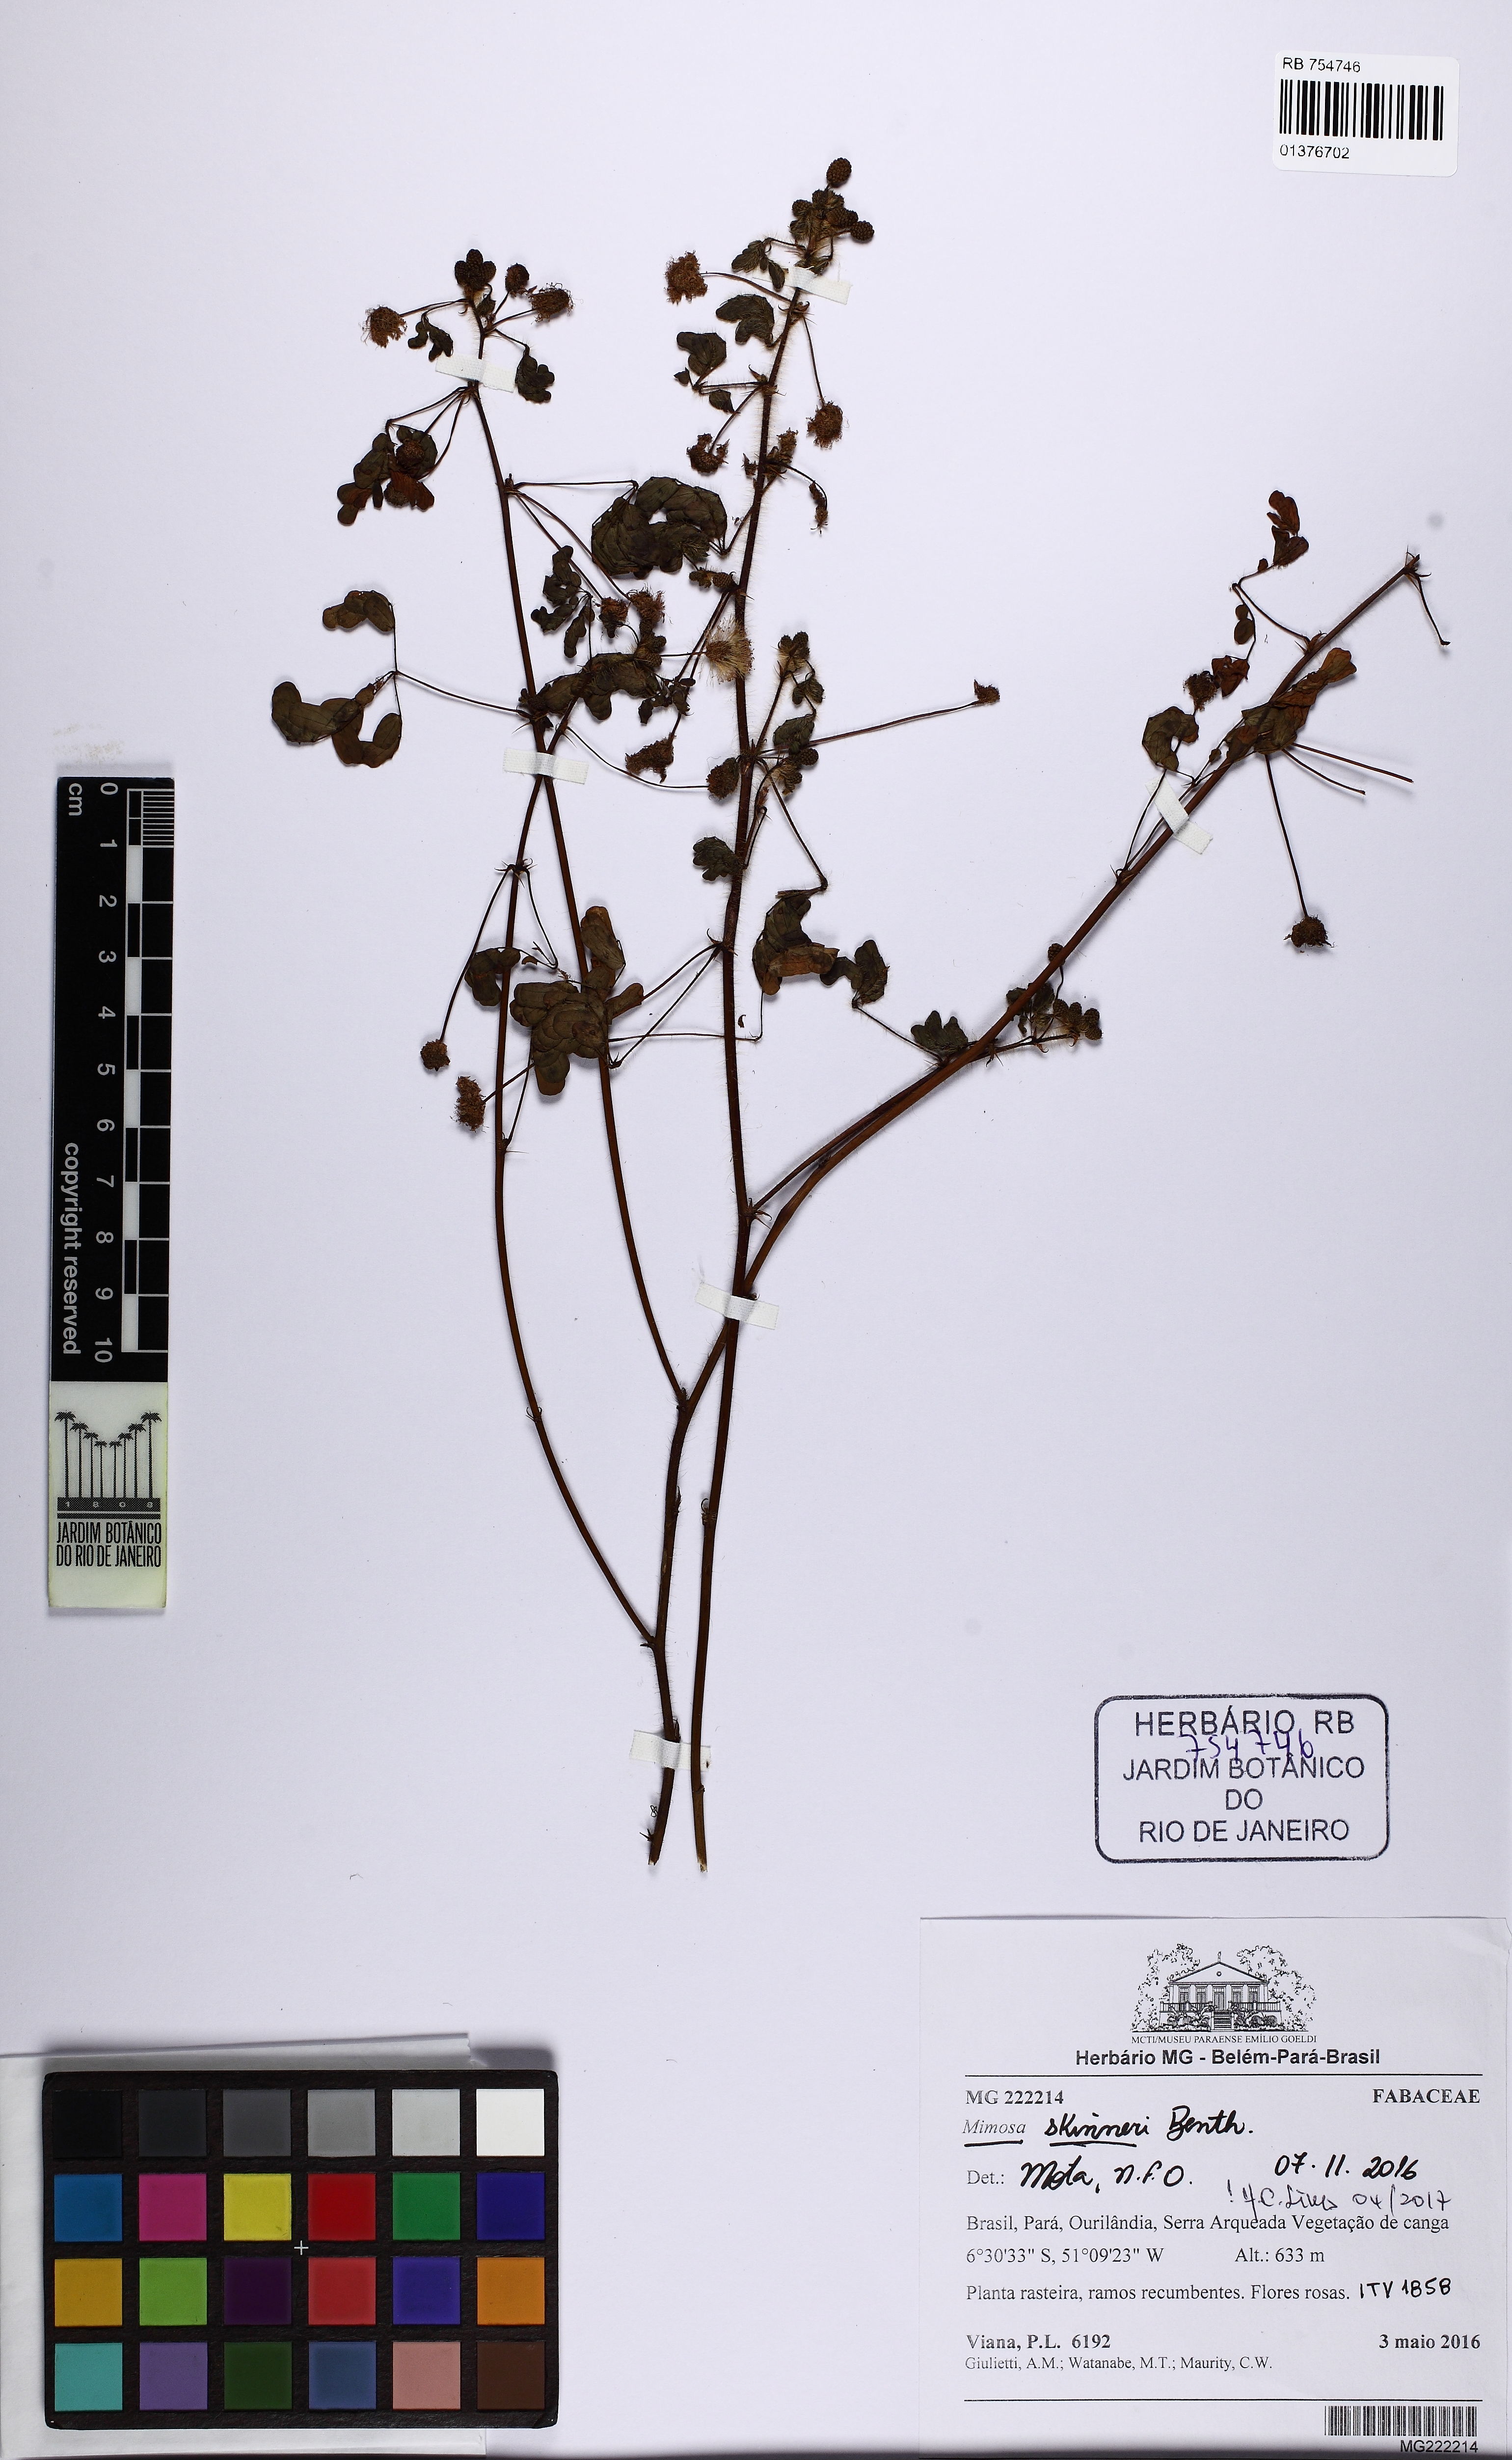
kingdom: Plantae
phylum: Tracheophyta
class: Magnoliopsida
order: Fabales
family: Fabaceae
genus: Mimosa
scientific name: Mimosa skinneri
